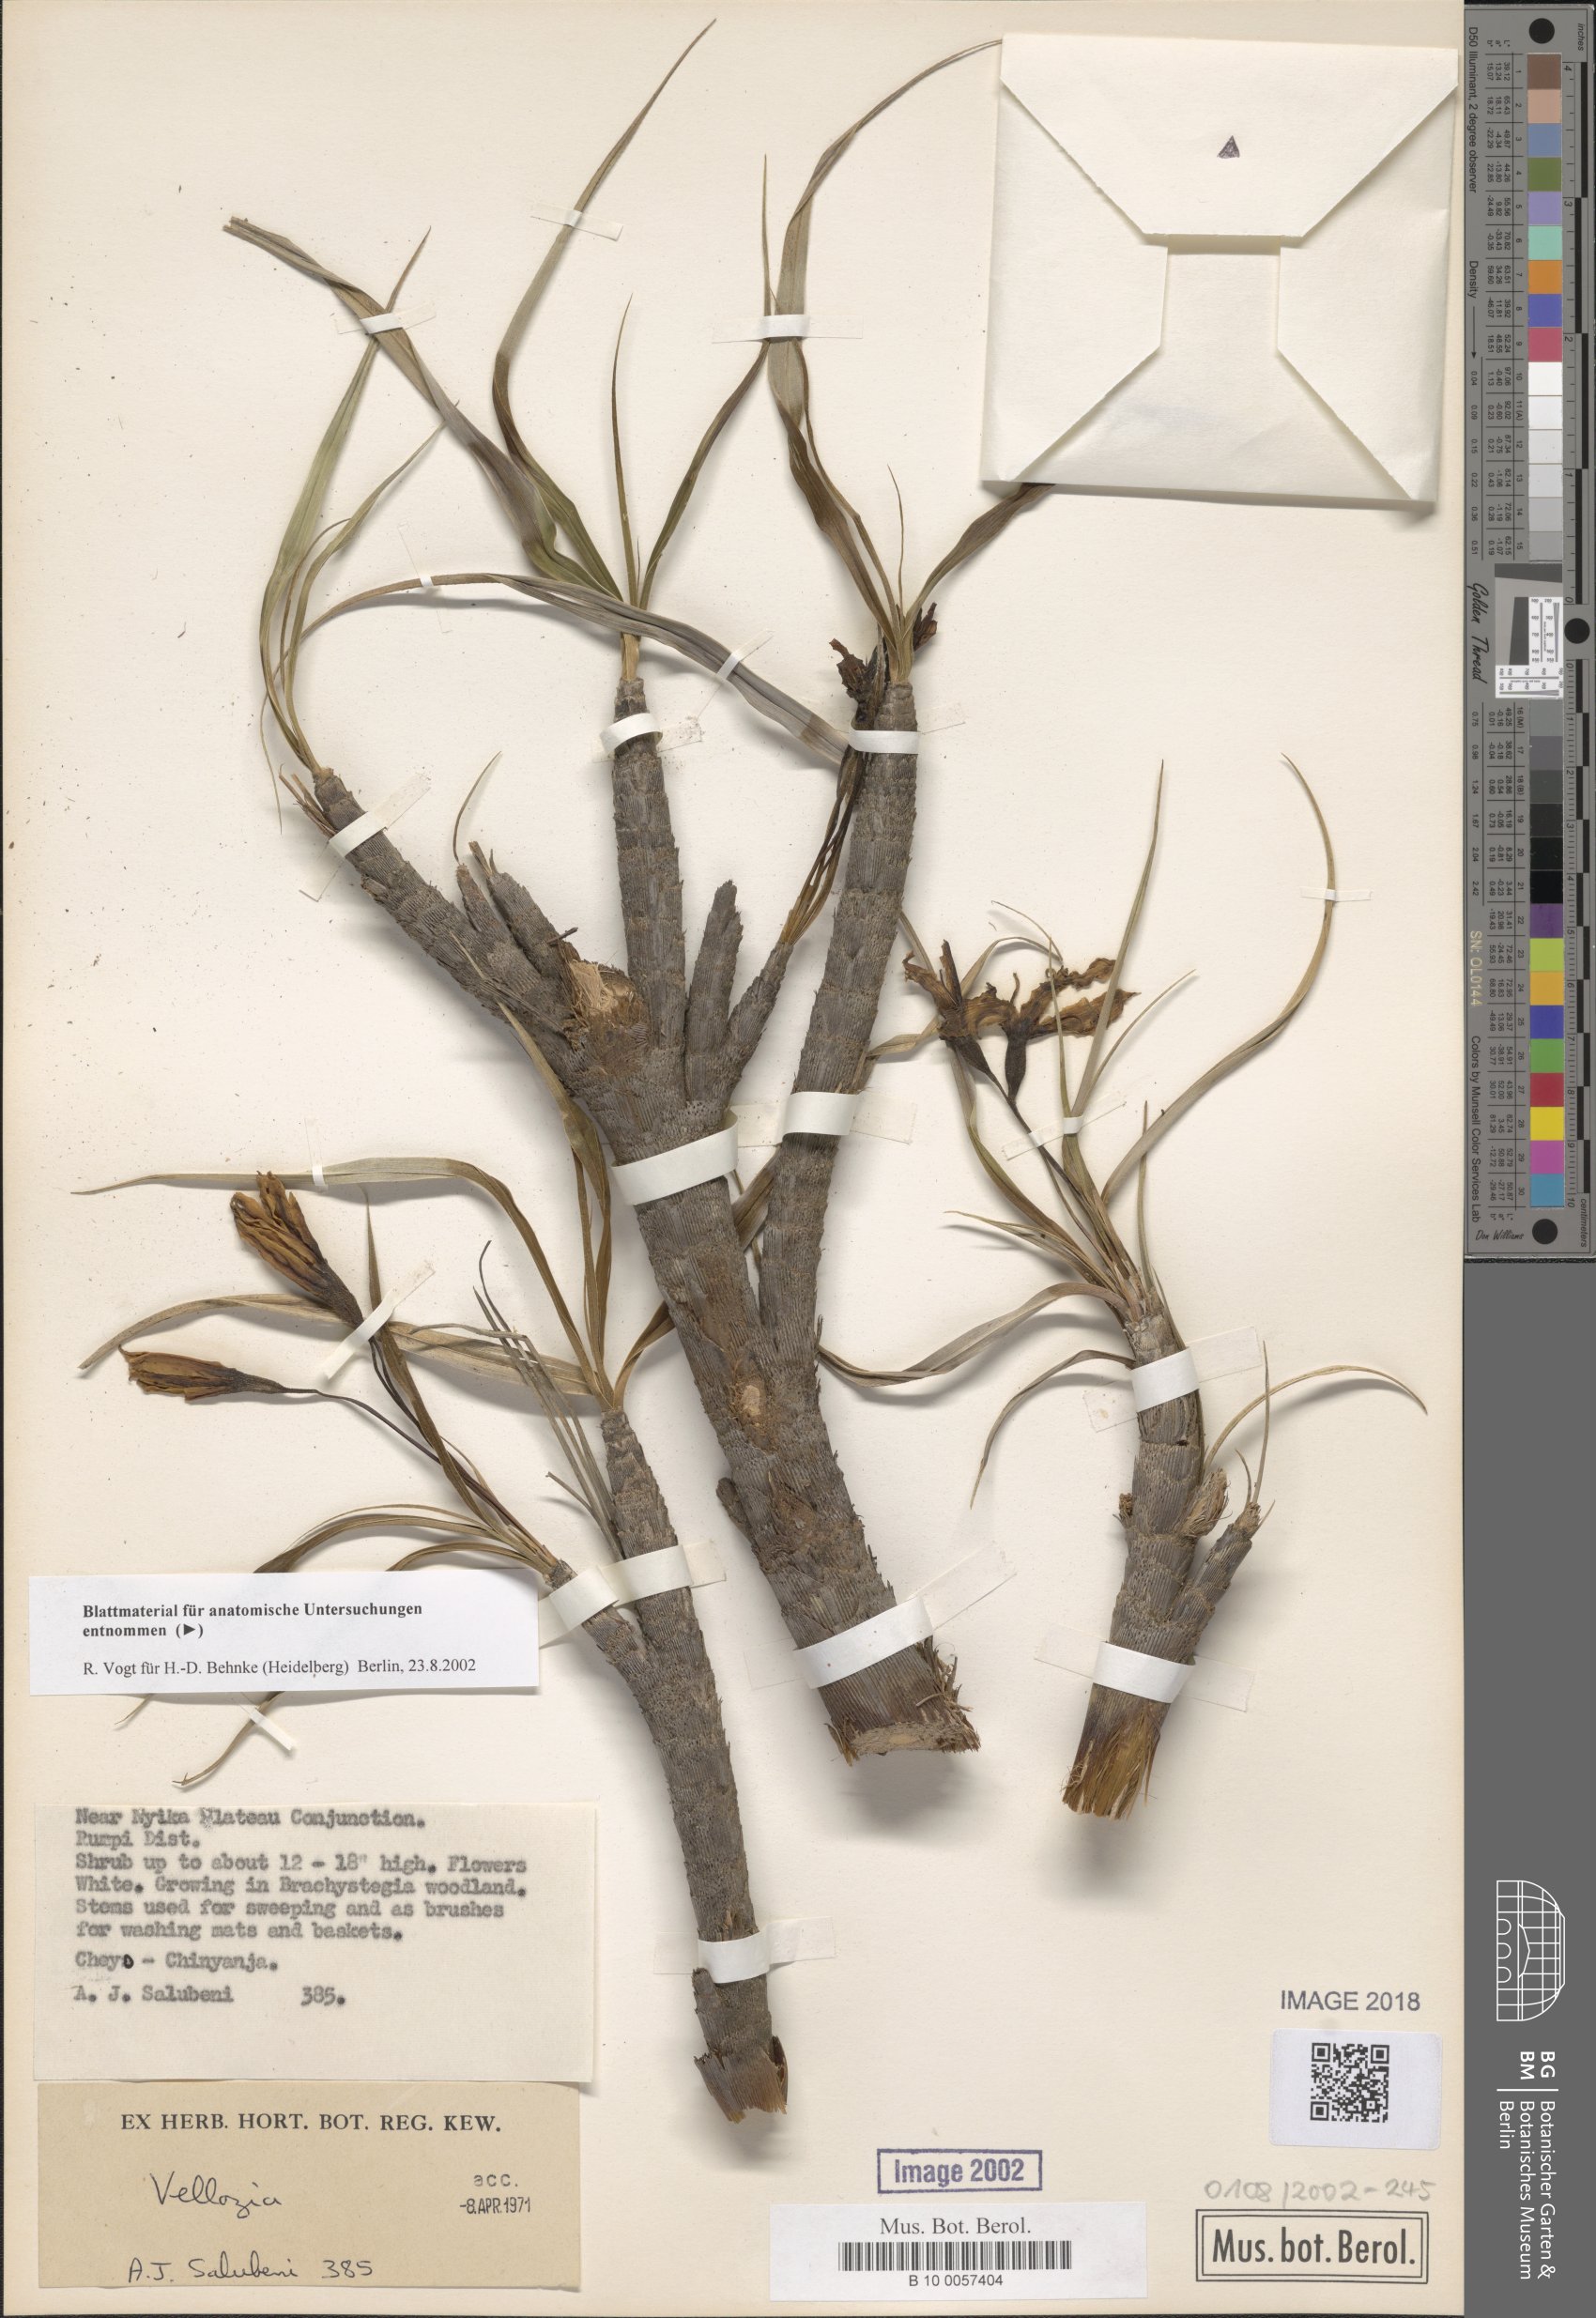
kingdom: Plantae
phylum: Tracheophyta
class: Liliopsida
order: Pandanales
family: Velloziaceae
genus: Xerophyta
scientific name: Xerophyta
